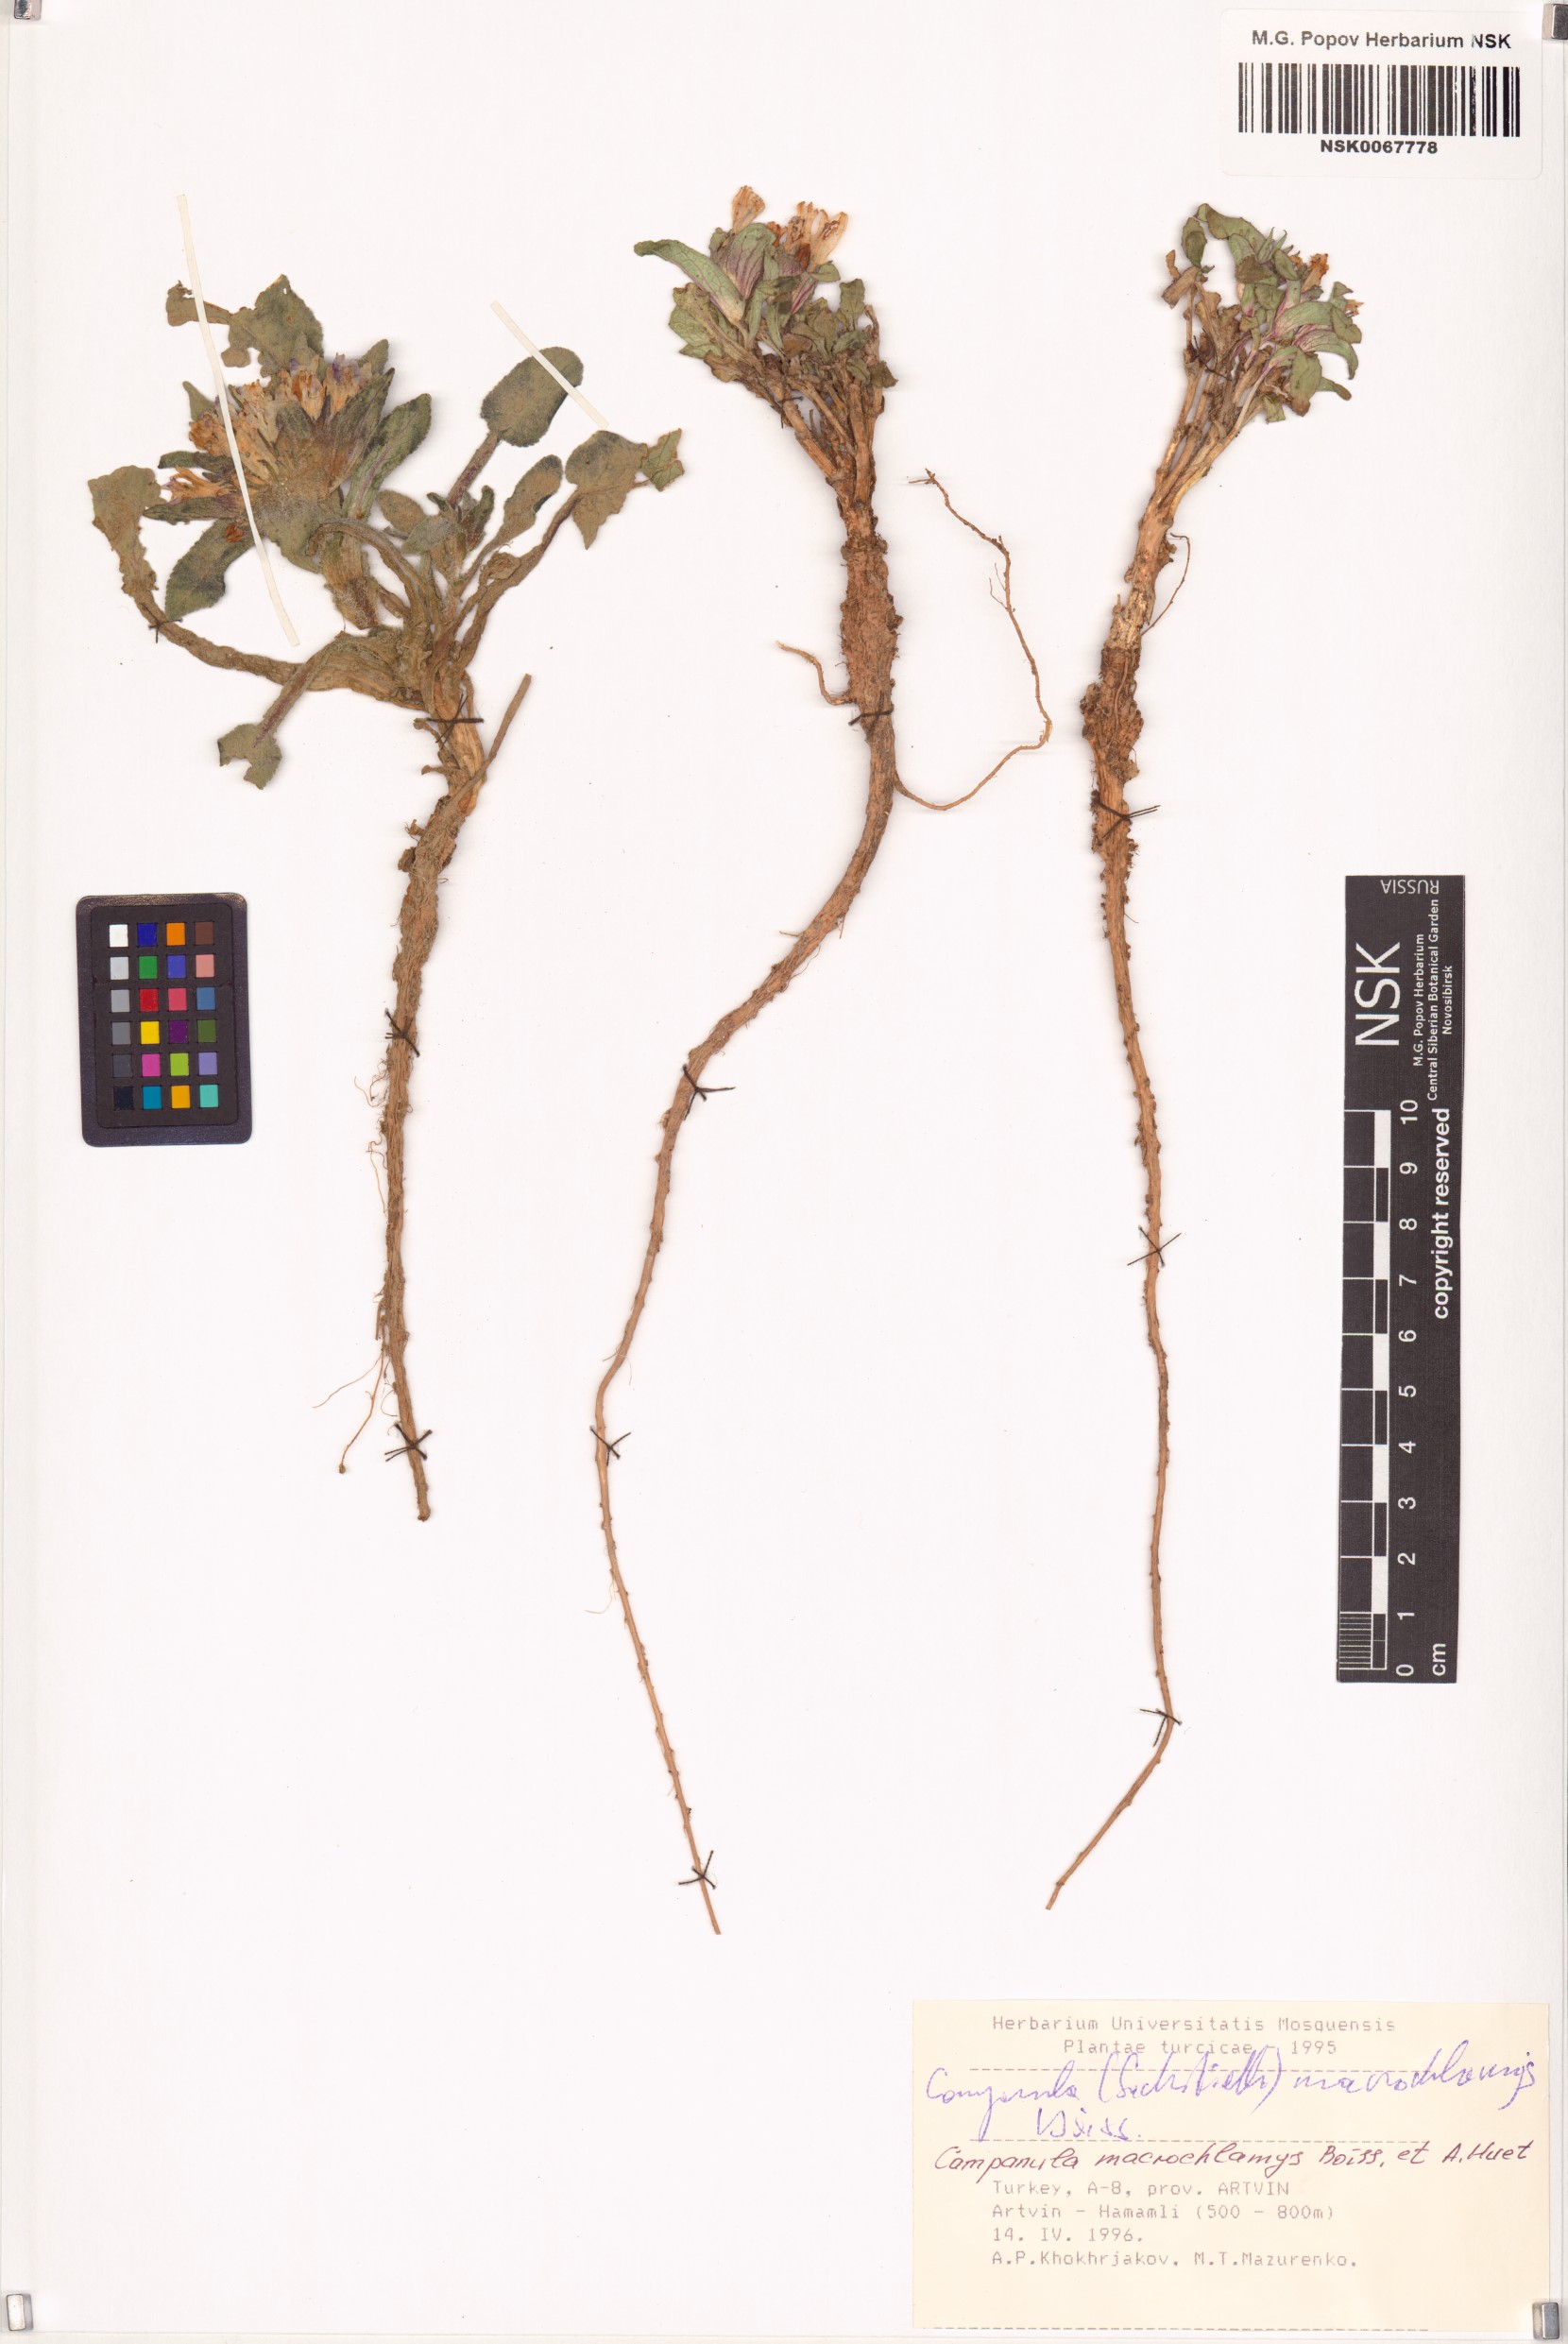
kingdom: Plantae
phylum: Tracheophyta
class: Magnoliopsida
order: Asterales
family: Campanulaceae
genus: Campanula
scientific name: Campanula macrochlamys
